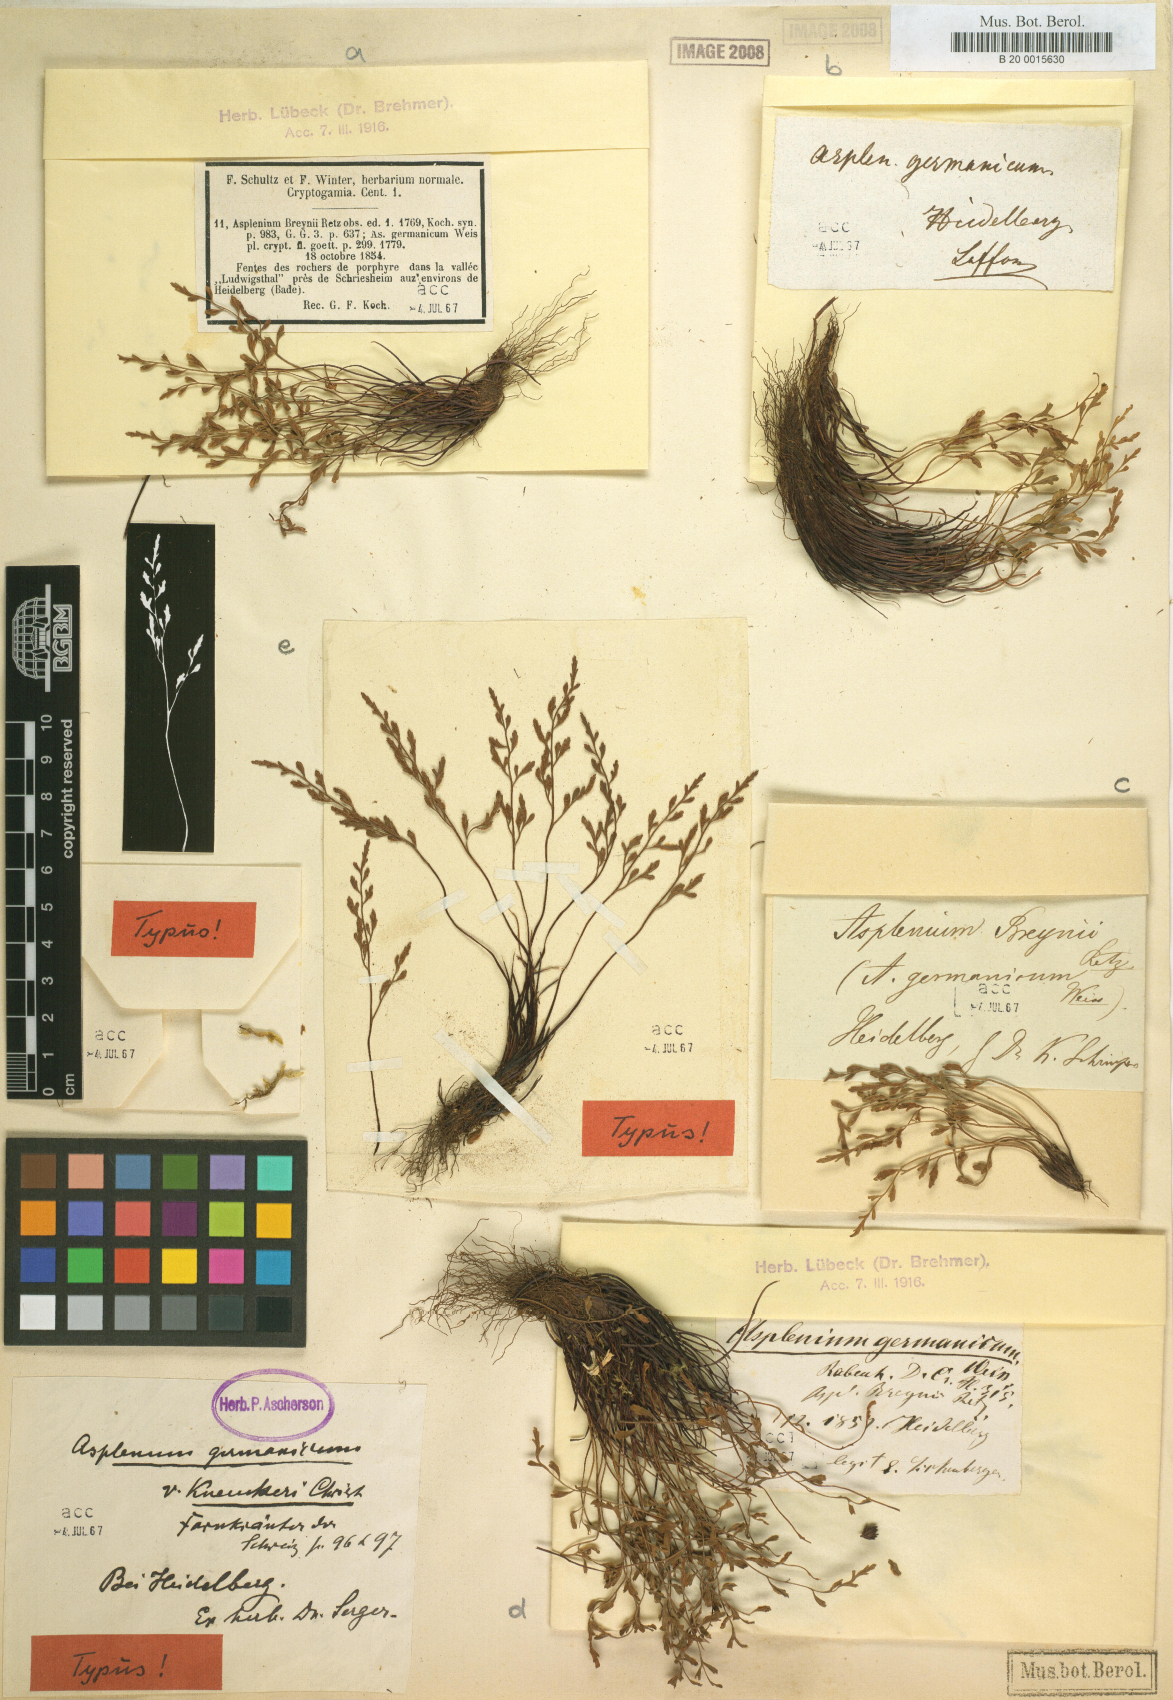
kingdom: Plantae
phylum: Tracheophyta
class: Polypodiopsida
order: Polypodiales
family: Aspleniaceae
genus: Asplenium
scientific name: Asplenium alternifolium
